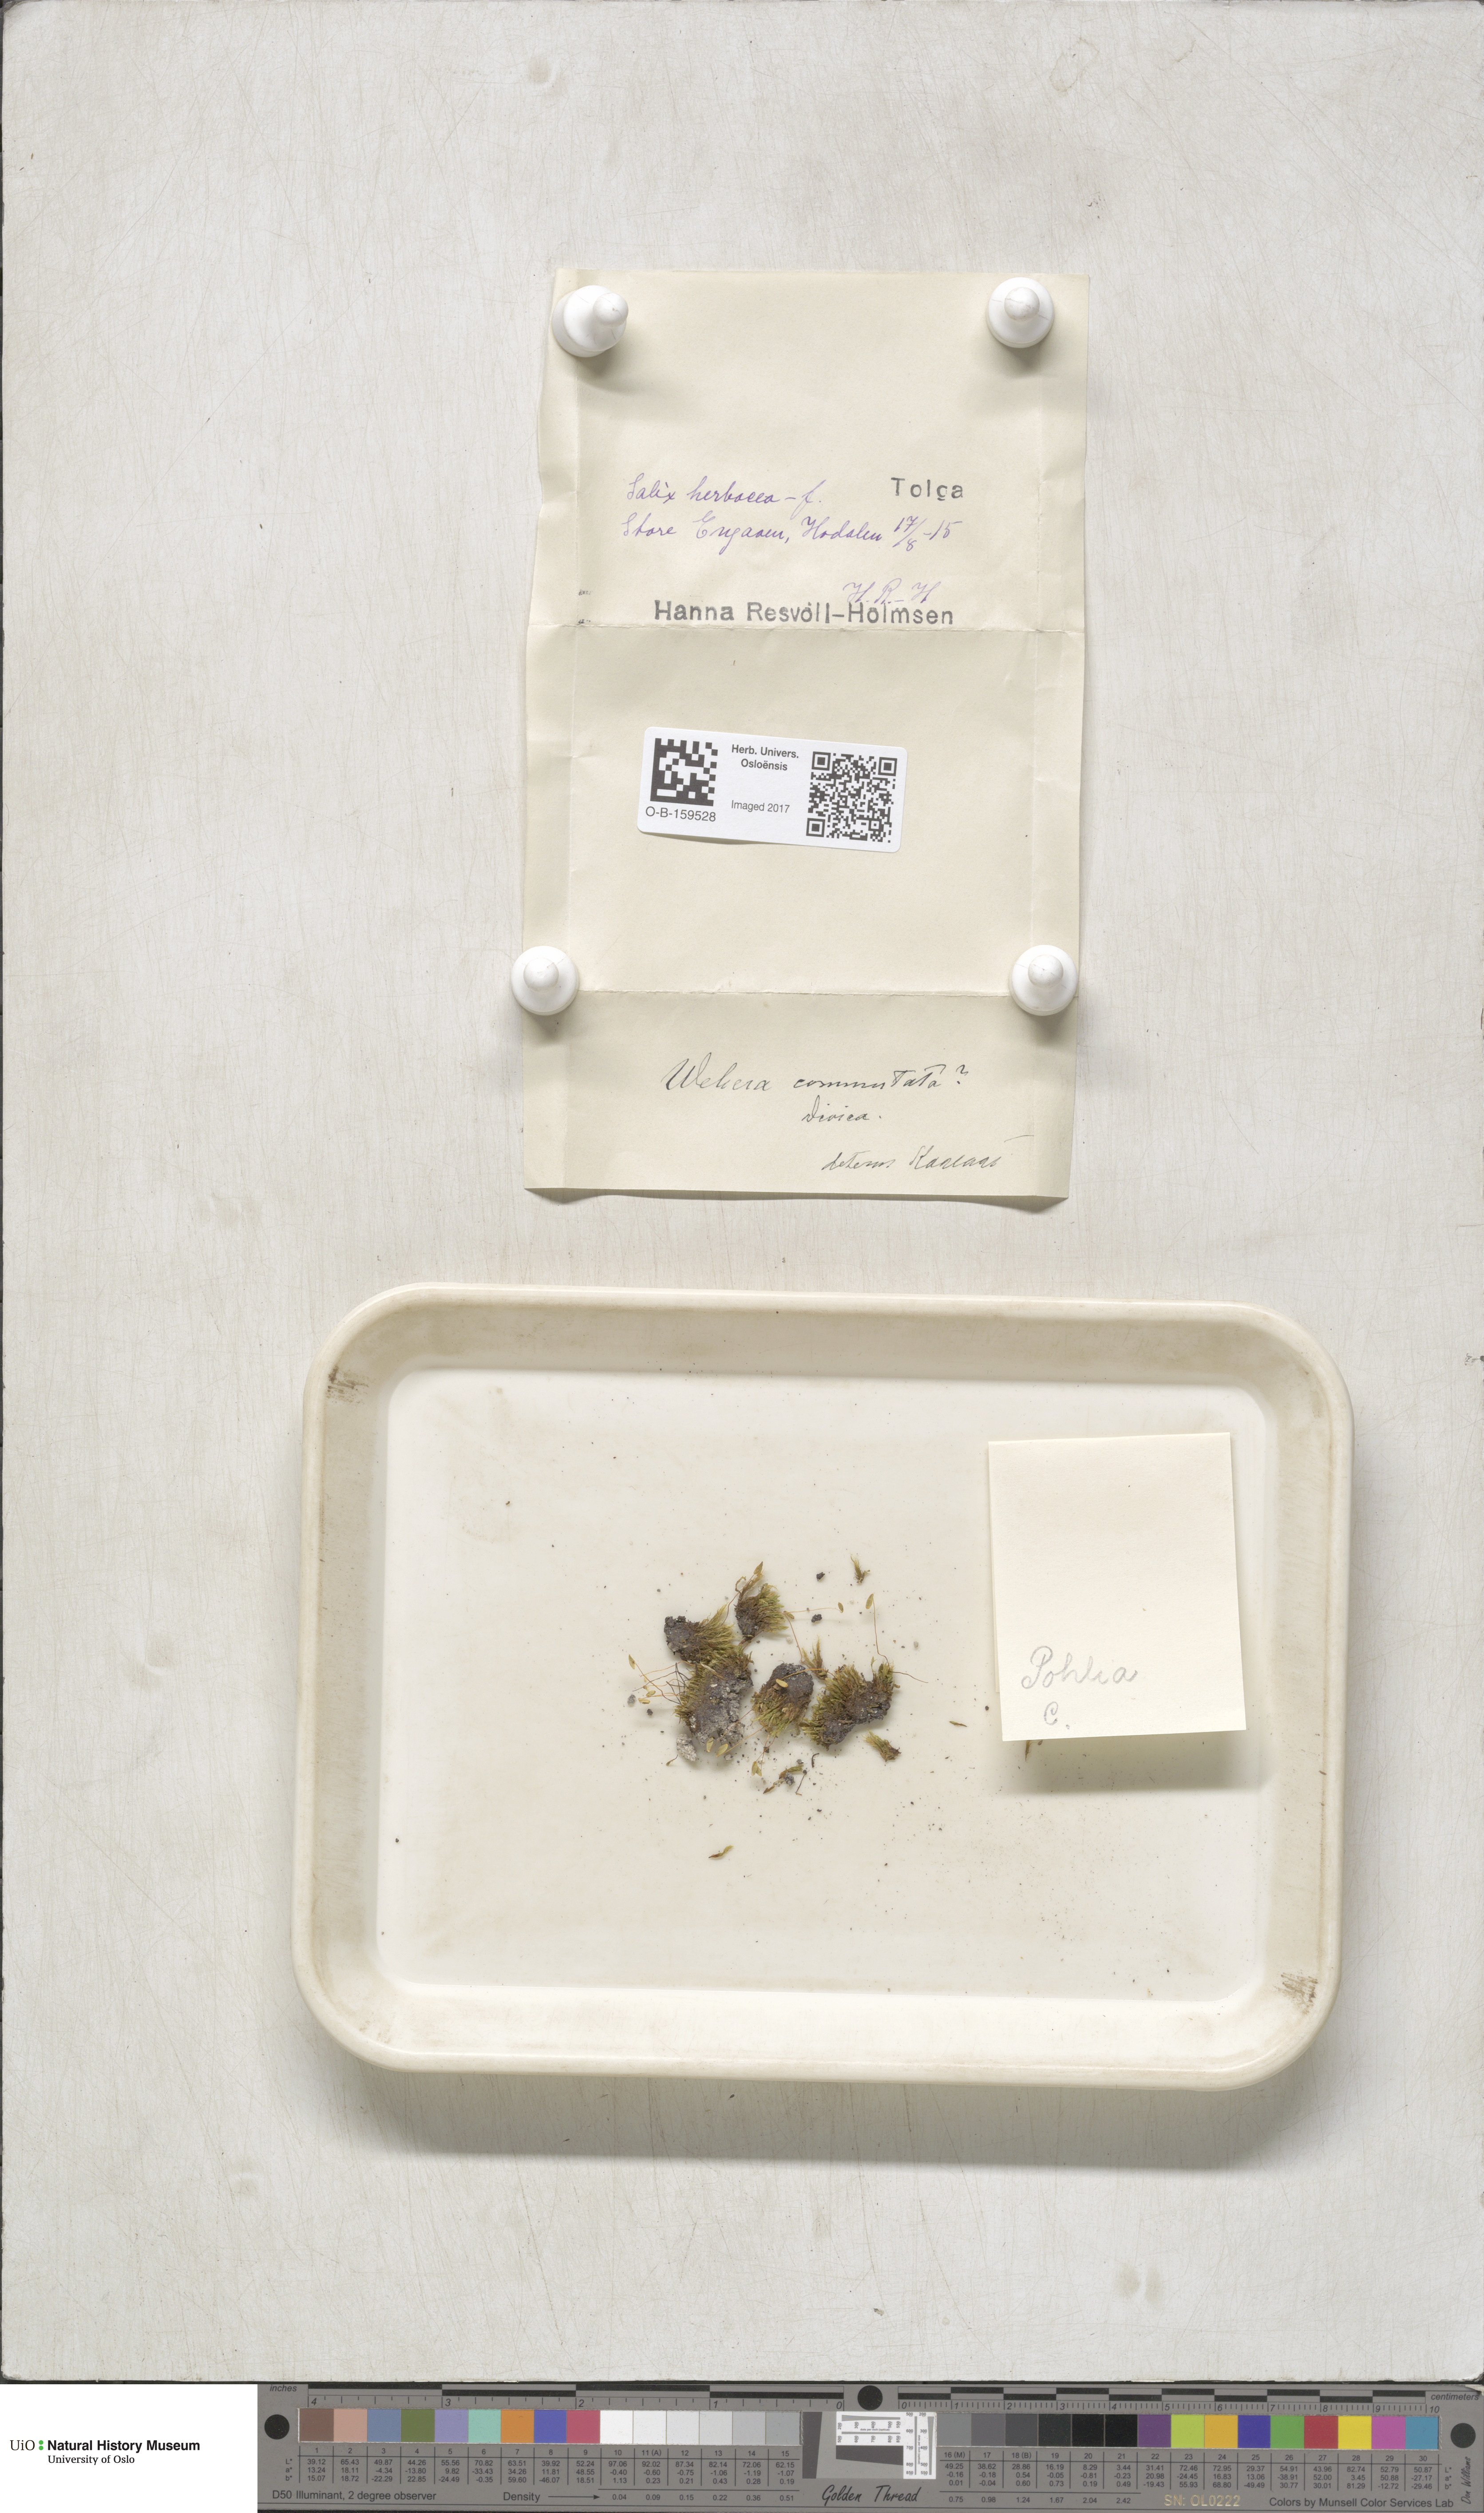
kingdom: Plantae
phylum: Bryophyta
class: Bryopsida
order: Bryales
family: Mniaceae
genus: Pohlia
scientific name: Pohlia drummondii
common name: Drummond's nodding moss
